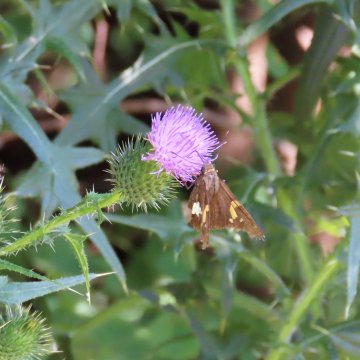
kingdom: Animalia
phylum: Arthropoda
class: Insecta
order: Lepidoptera
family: Hesperiidae
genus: Epargyreus
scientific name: Epargyreus clarus
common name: Silver-spotted Skipper
